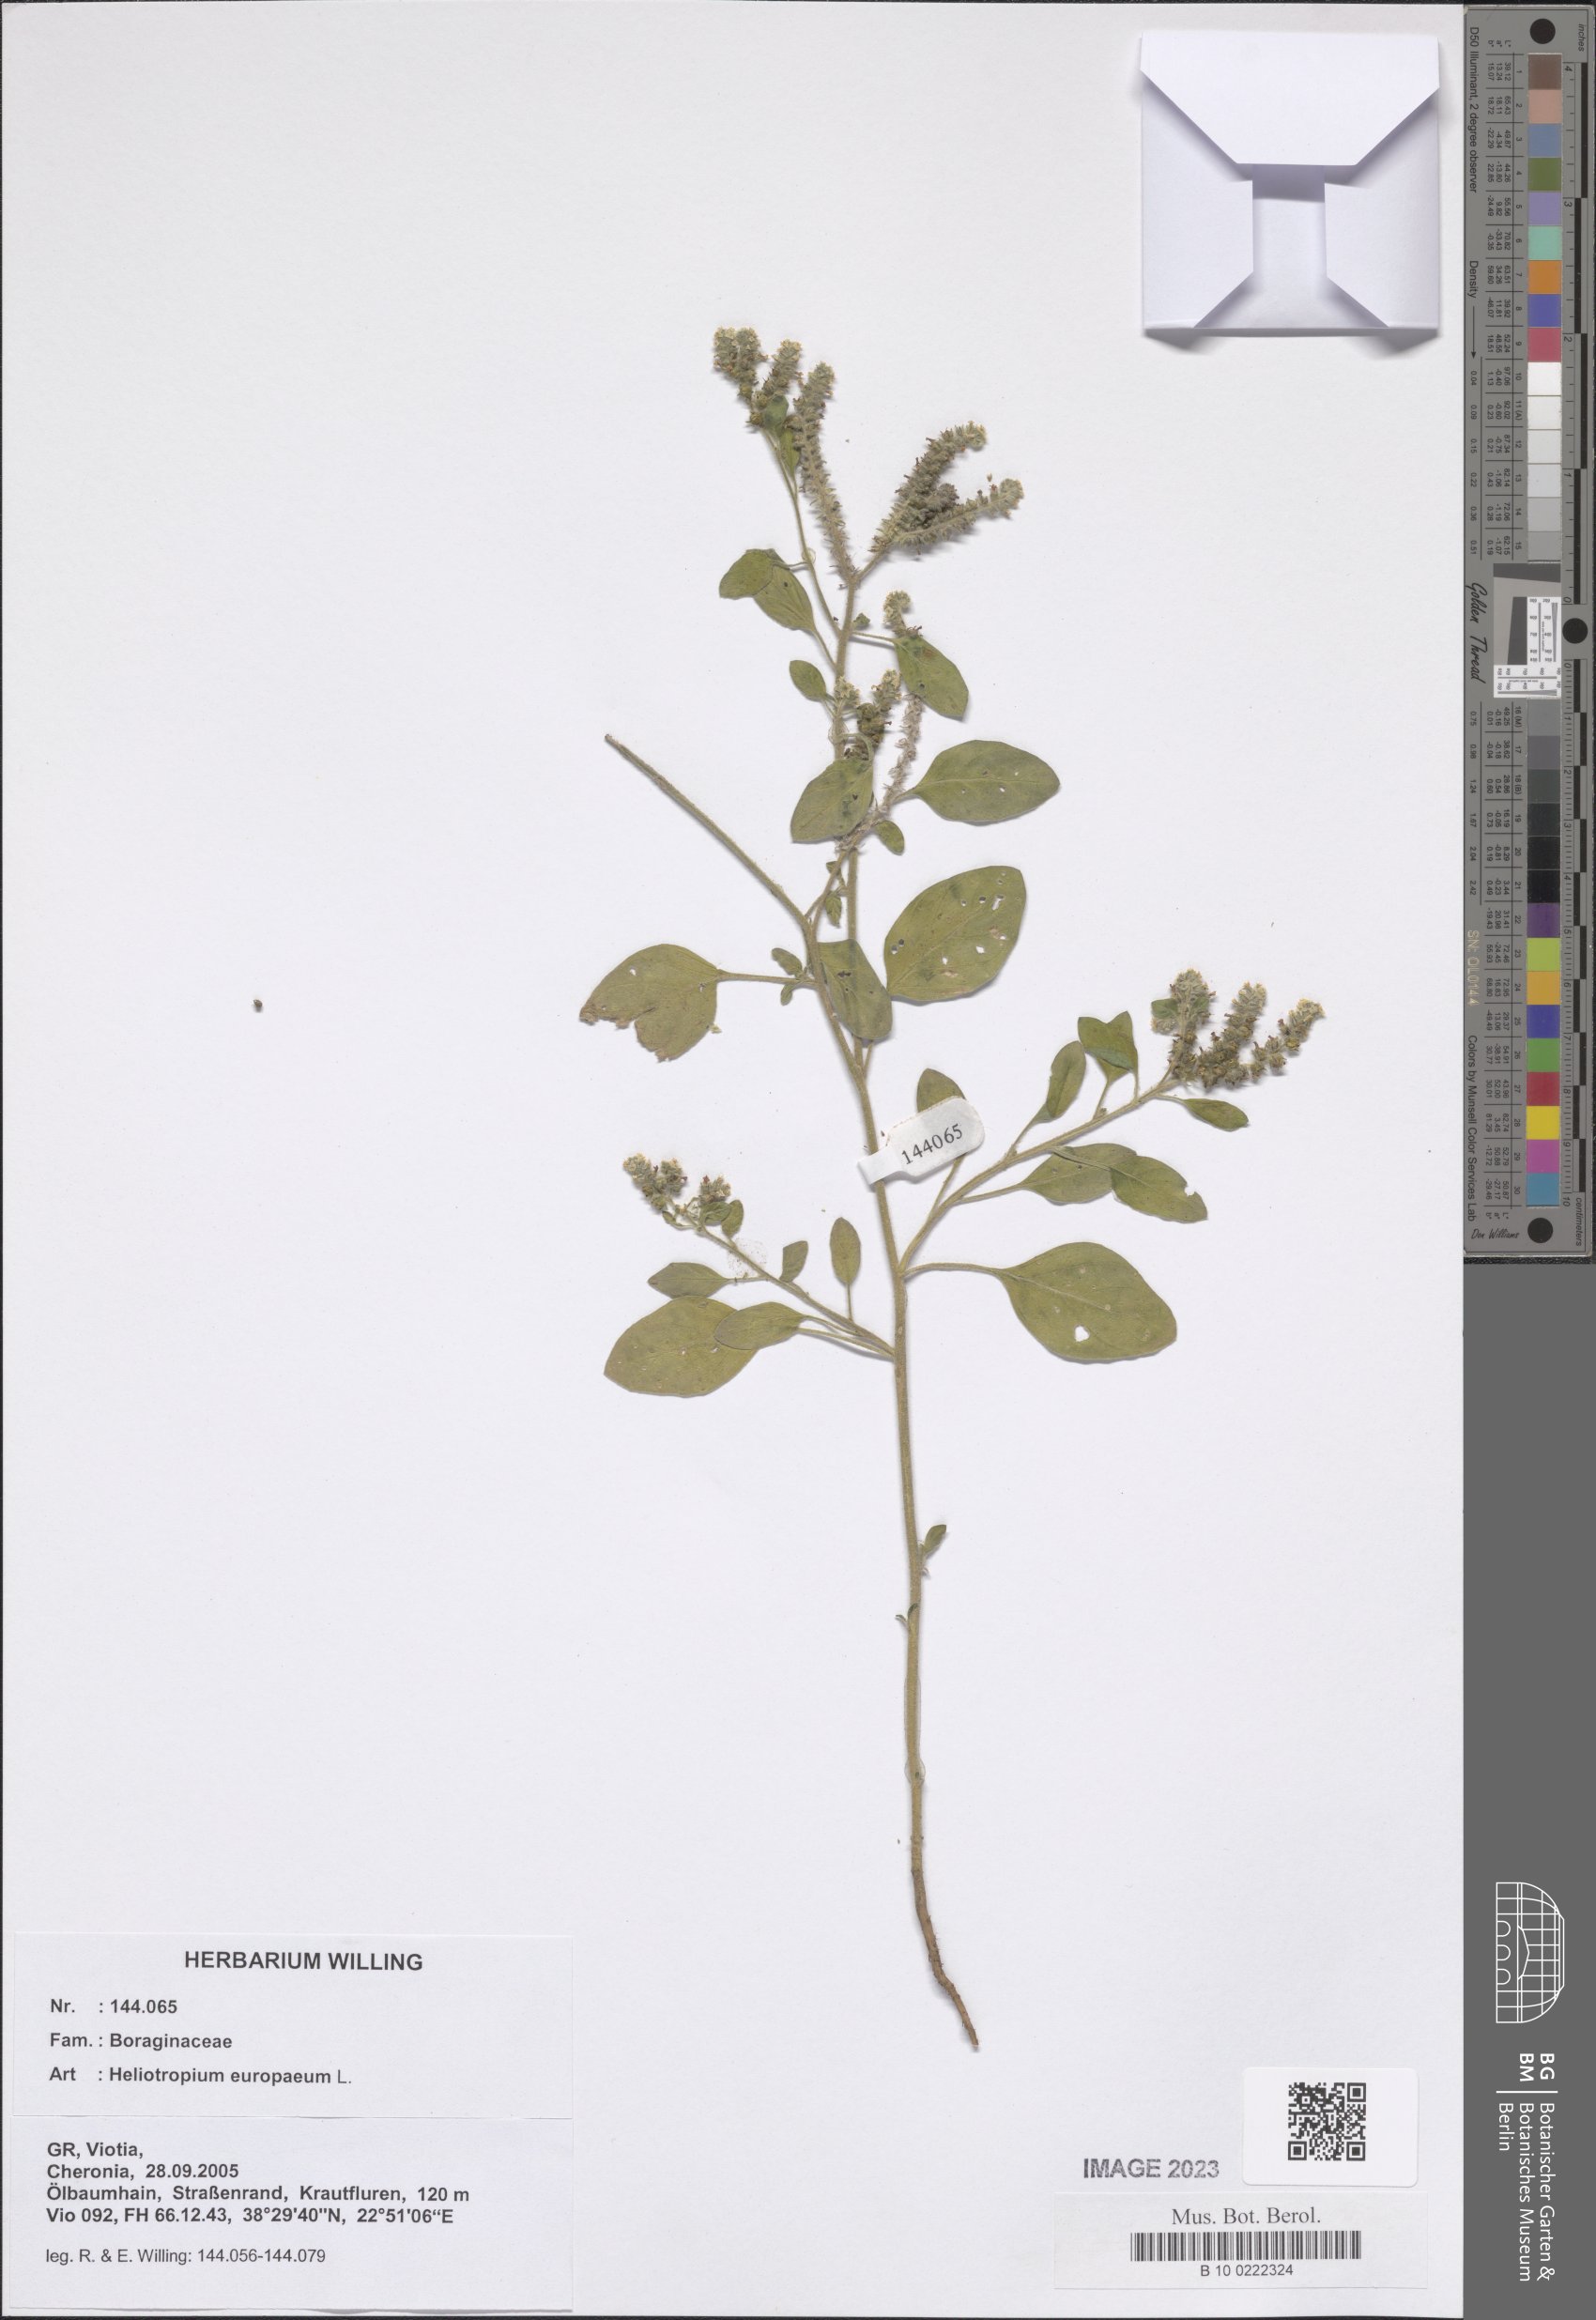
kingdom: Plantae
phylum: Tracheophyta
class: Magnoliopsida
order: Boraginales
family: Heliotropiaceae
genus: Heliotropium
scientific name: Heliotropium europaeum
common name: European heliotrope
